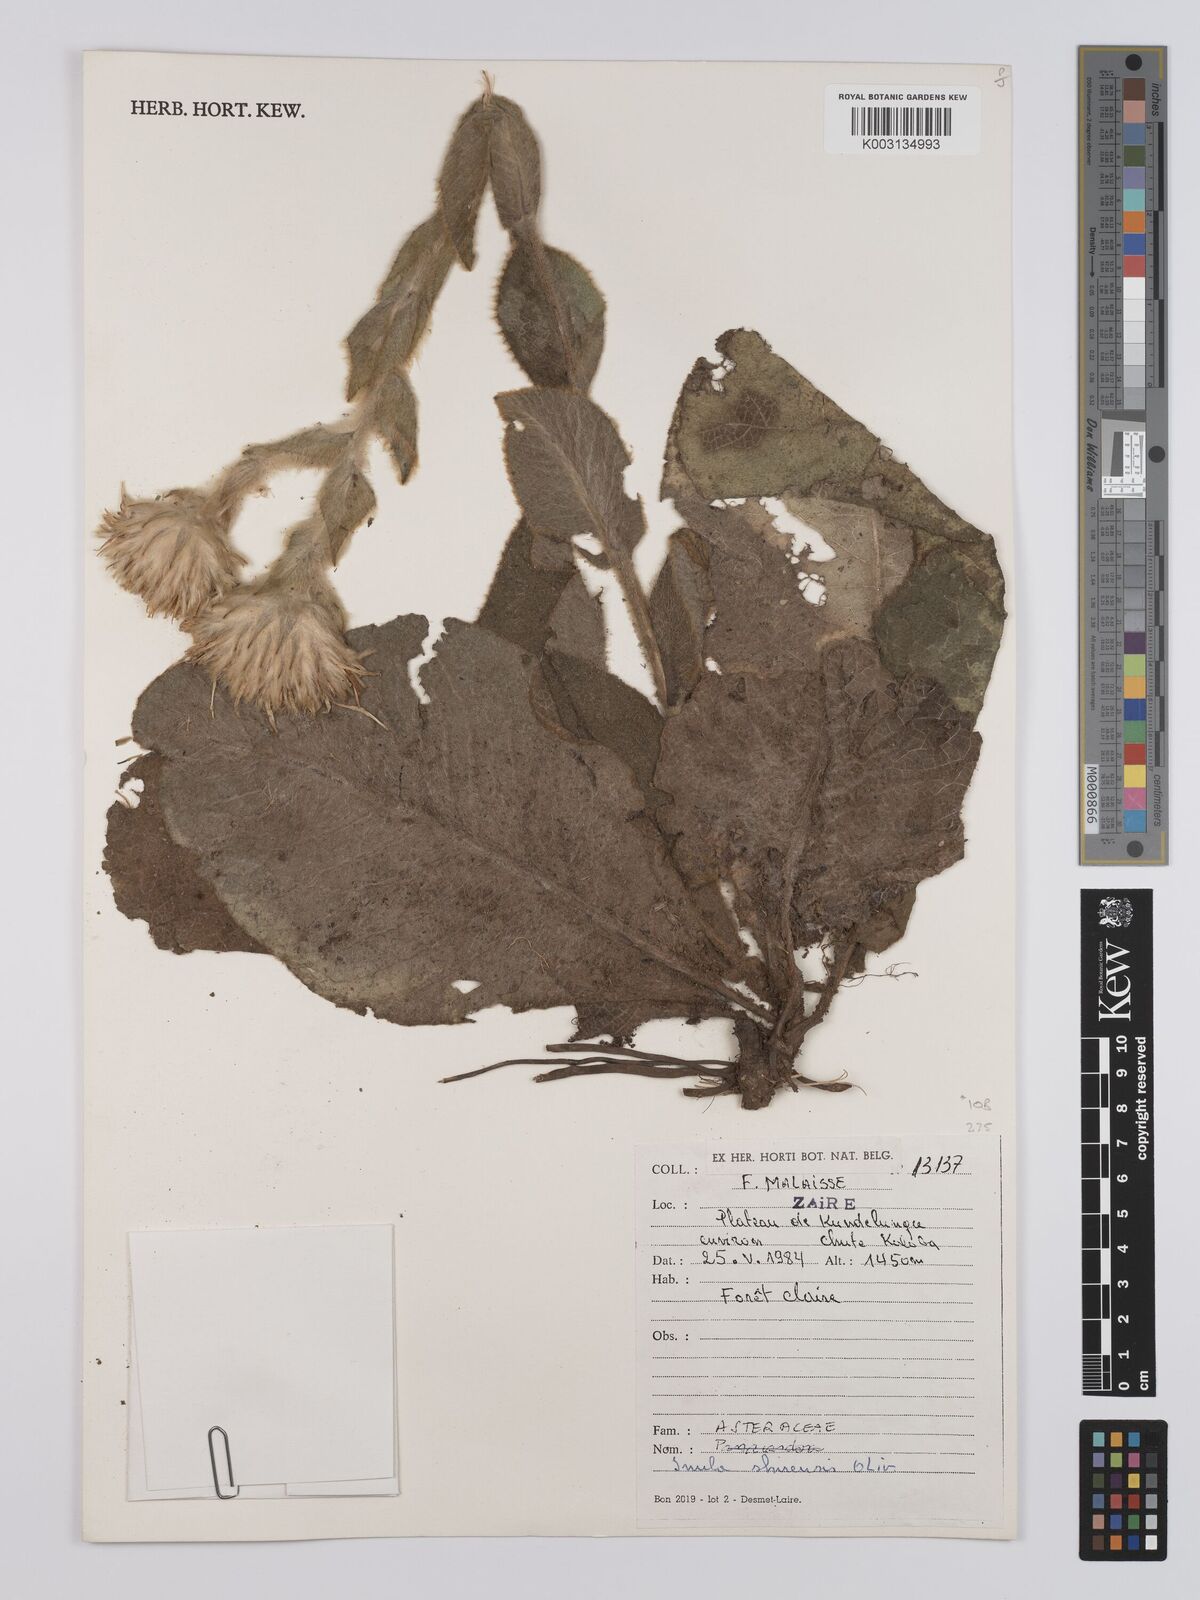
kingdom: Plantae
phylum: Tracheophyta
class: Magnoliopsida
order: Asterales
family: Asteraceae
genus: Monactinocephalus
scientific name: Monactinocephalus shirensis
